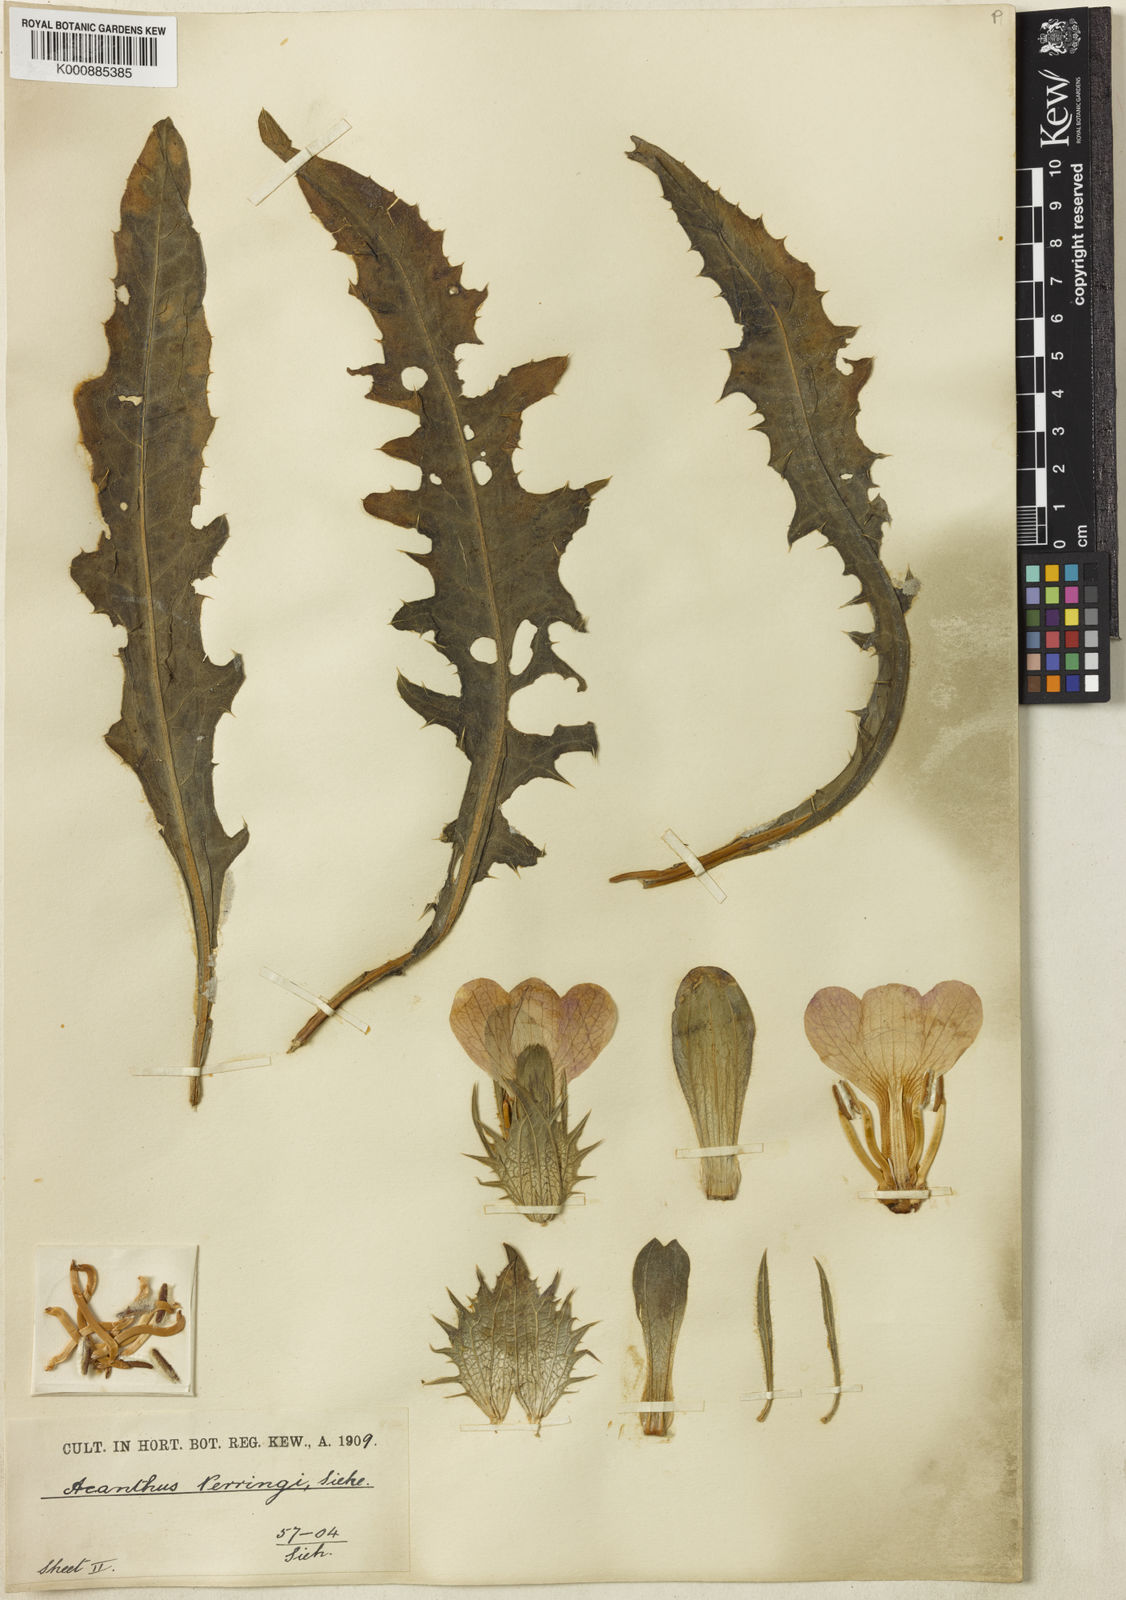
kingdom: Plantae
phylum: Tracheophyta
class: Magnoliopsida
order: Lamiales
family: Acanthaceae
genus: Acanthus
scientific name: Acanthus dioscoridis
